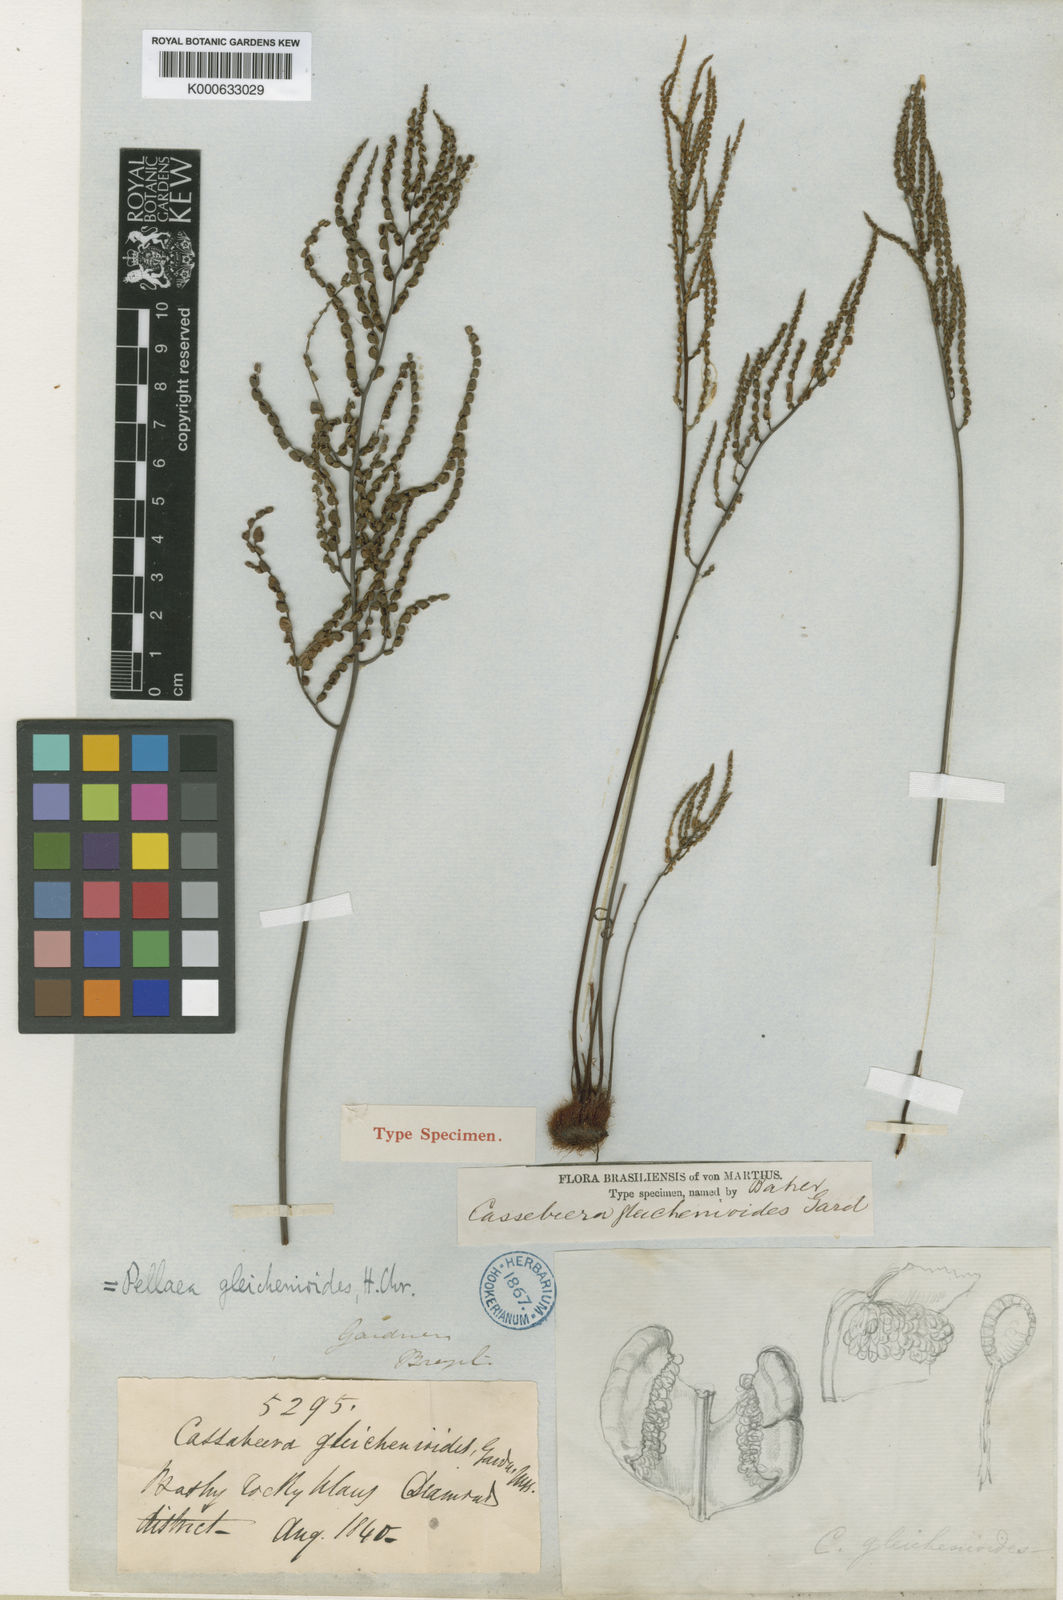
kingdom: Plantae
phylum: Tracheophyta
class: Polypodiopsida
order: Polypodiales
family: Pteridaceae
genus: Ormopteris
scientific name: Ormopteris gleichenioides
